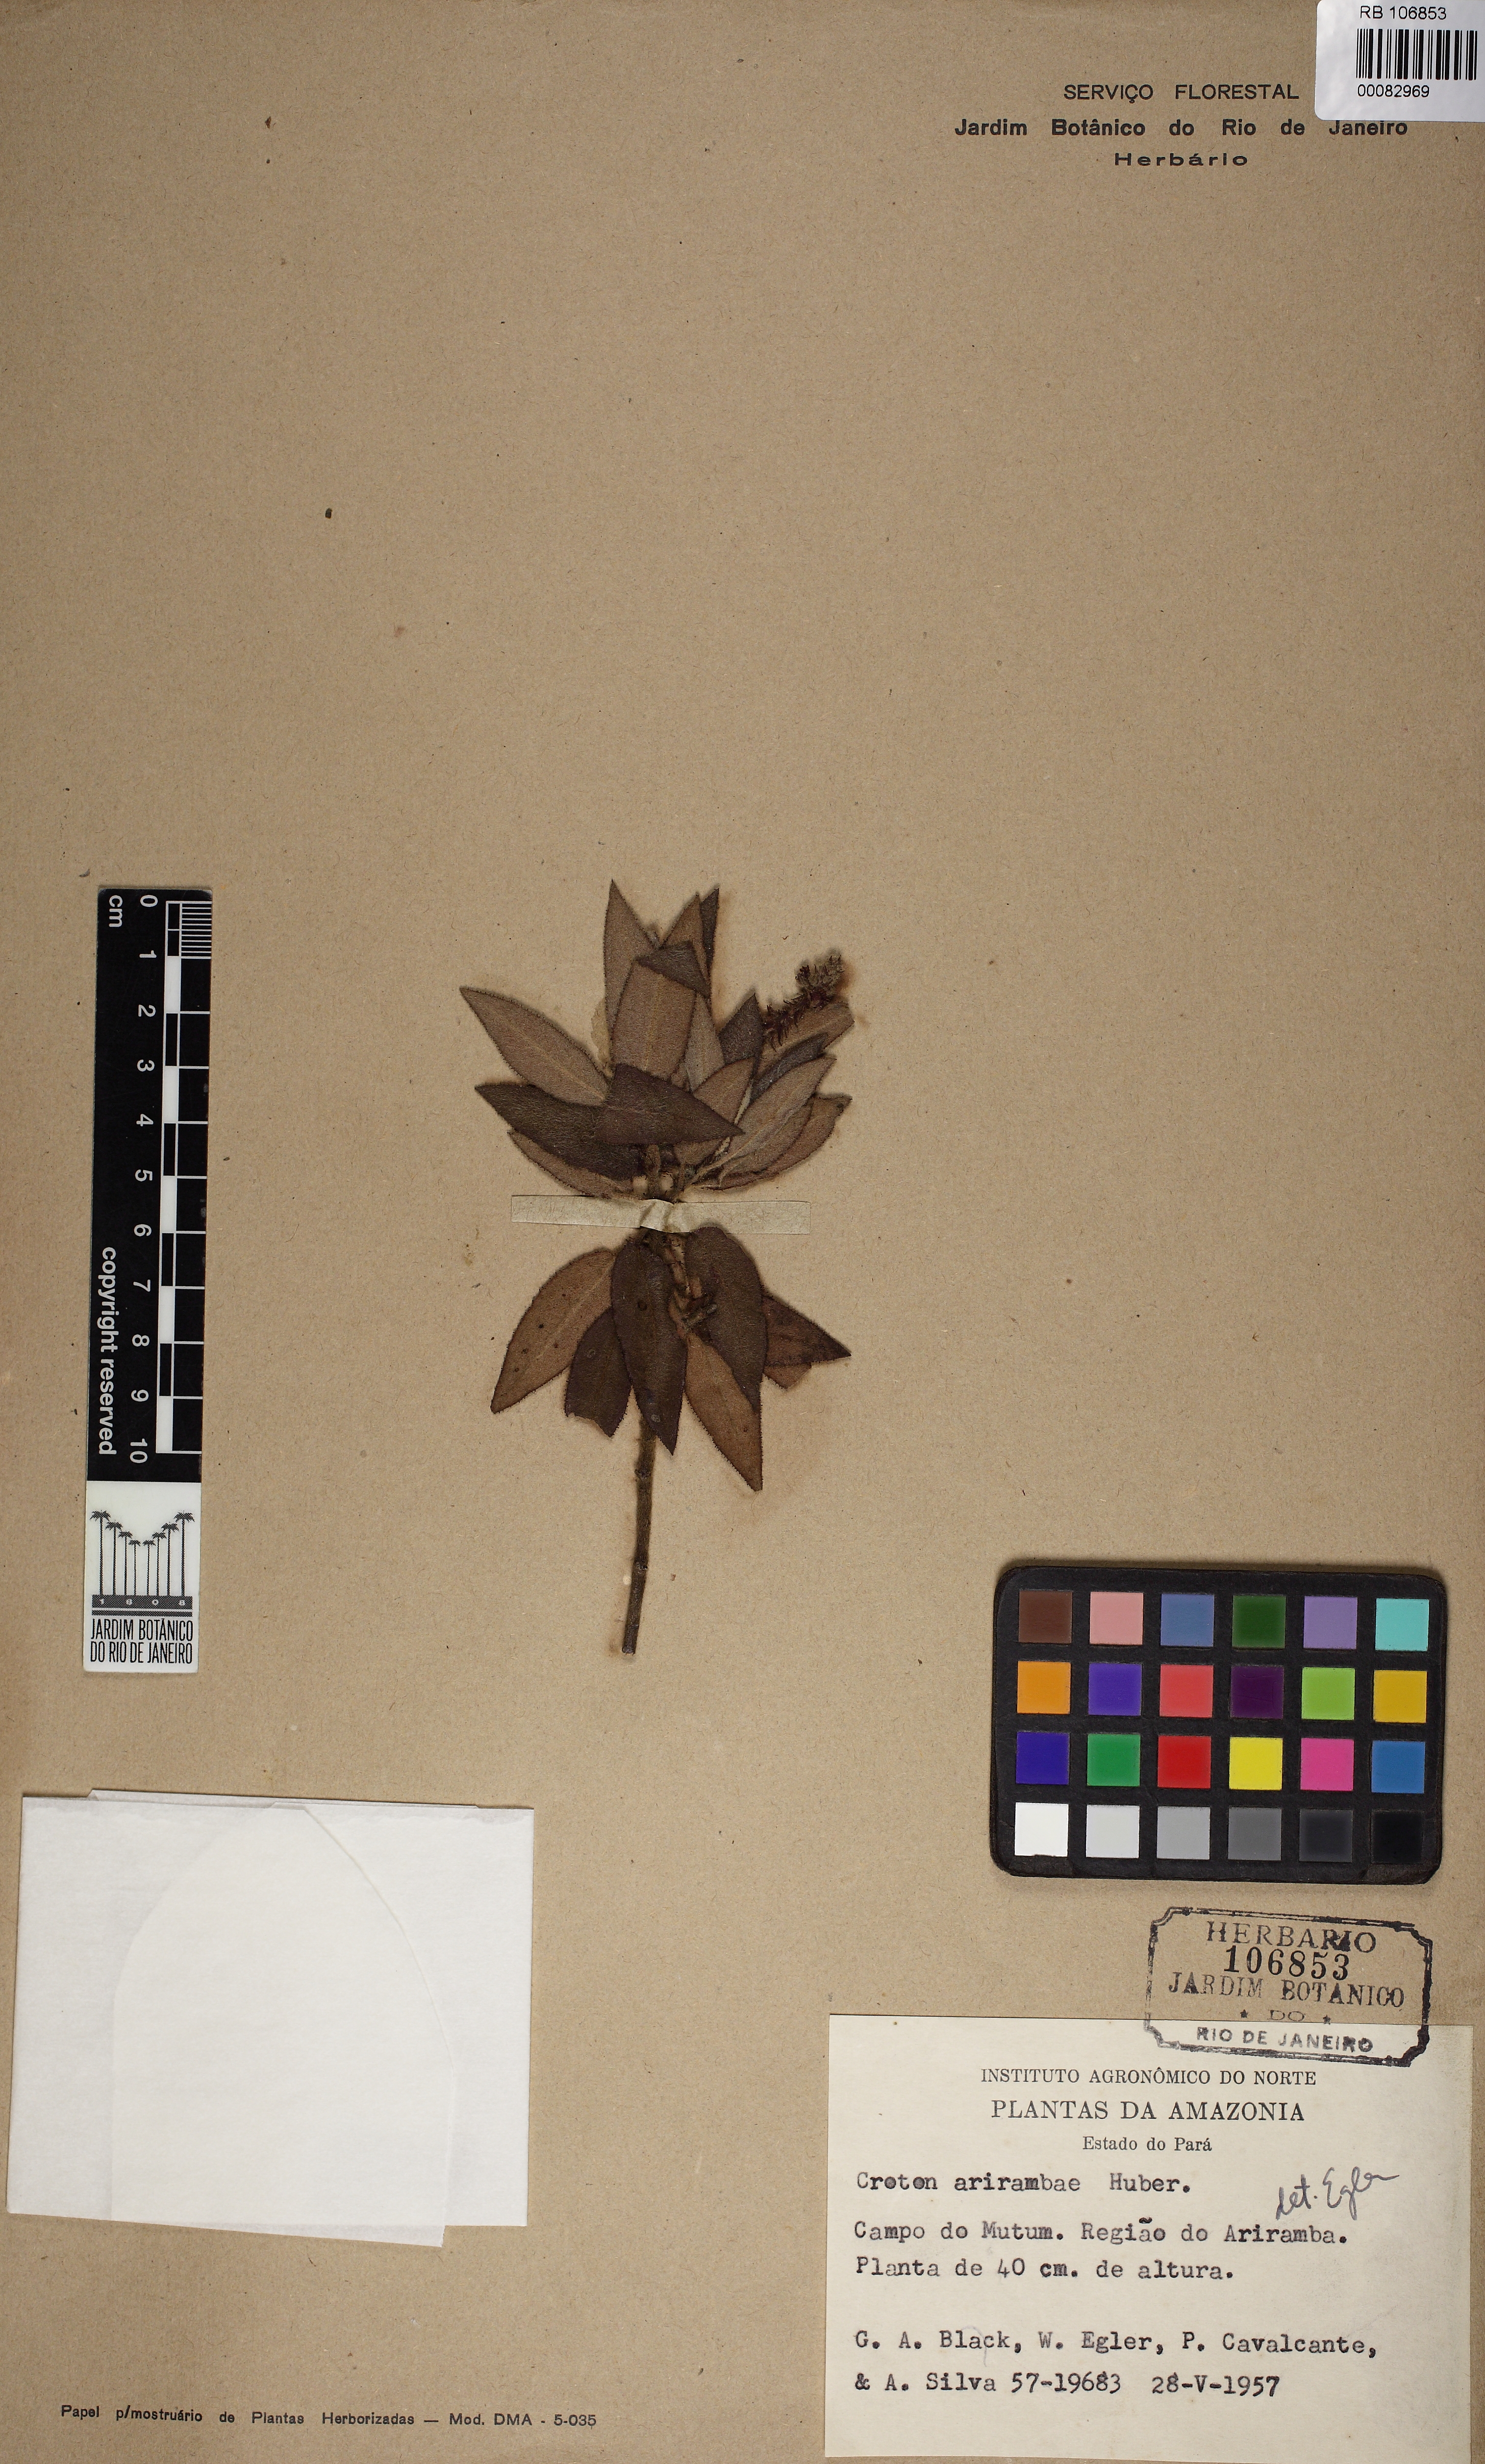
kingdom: Plantae
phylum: Tracheophyta
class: Magnoliopsida
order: Malpighiales
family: Euphorbiaceae
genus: Croton
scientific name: Croton arirambae
